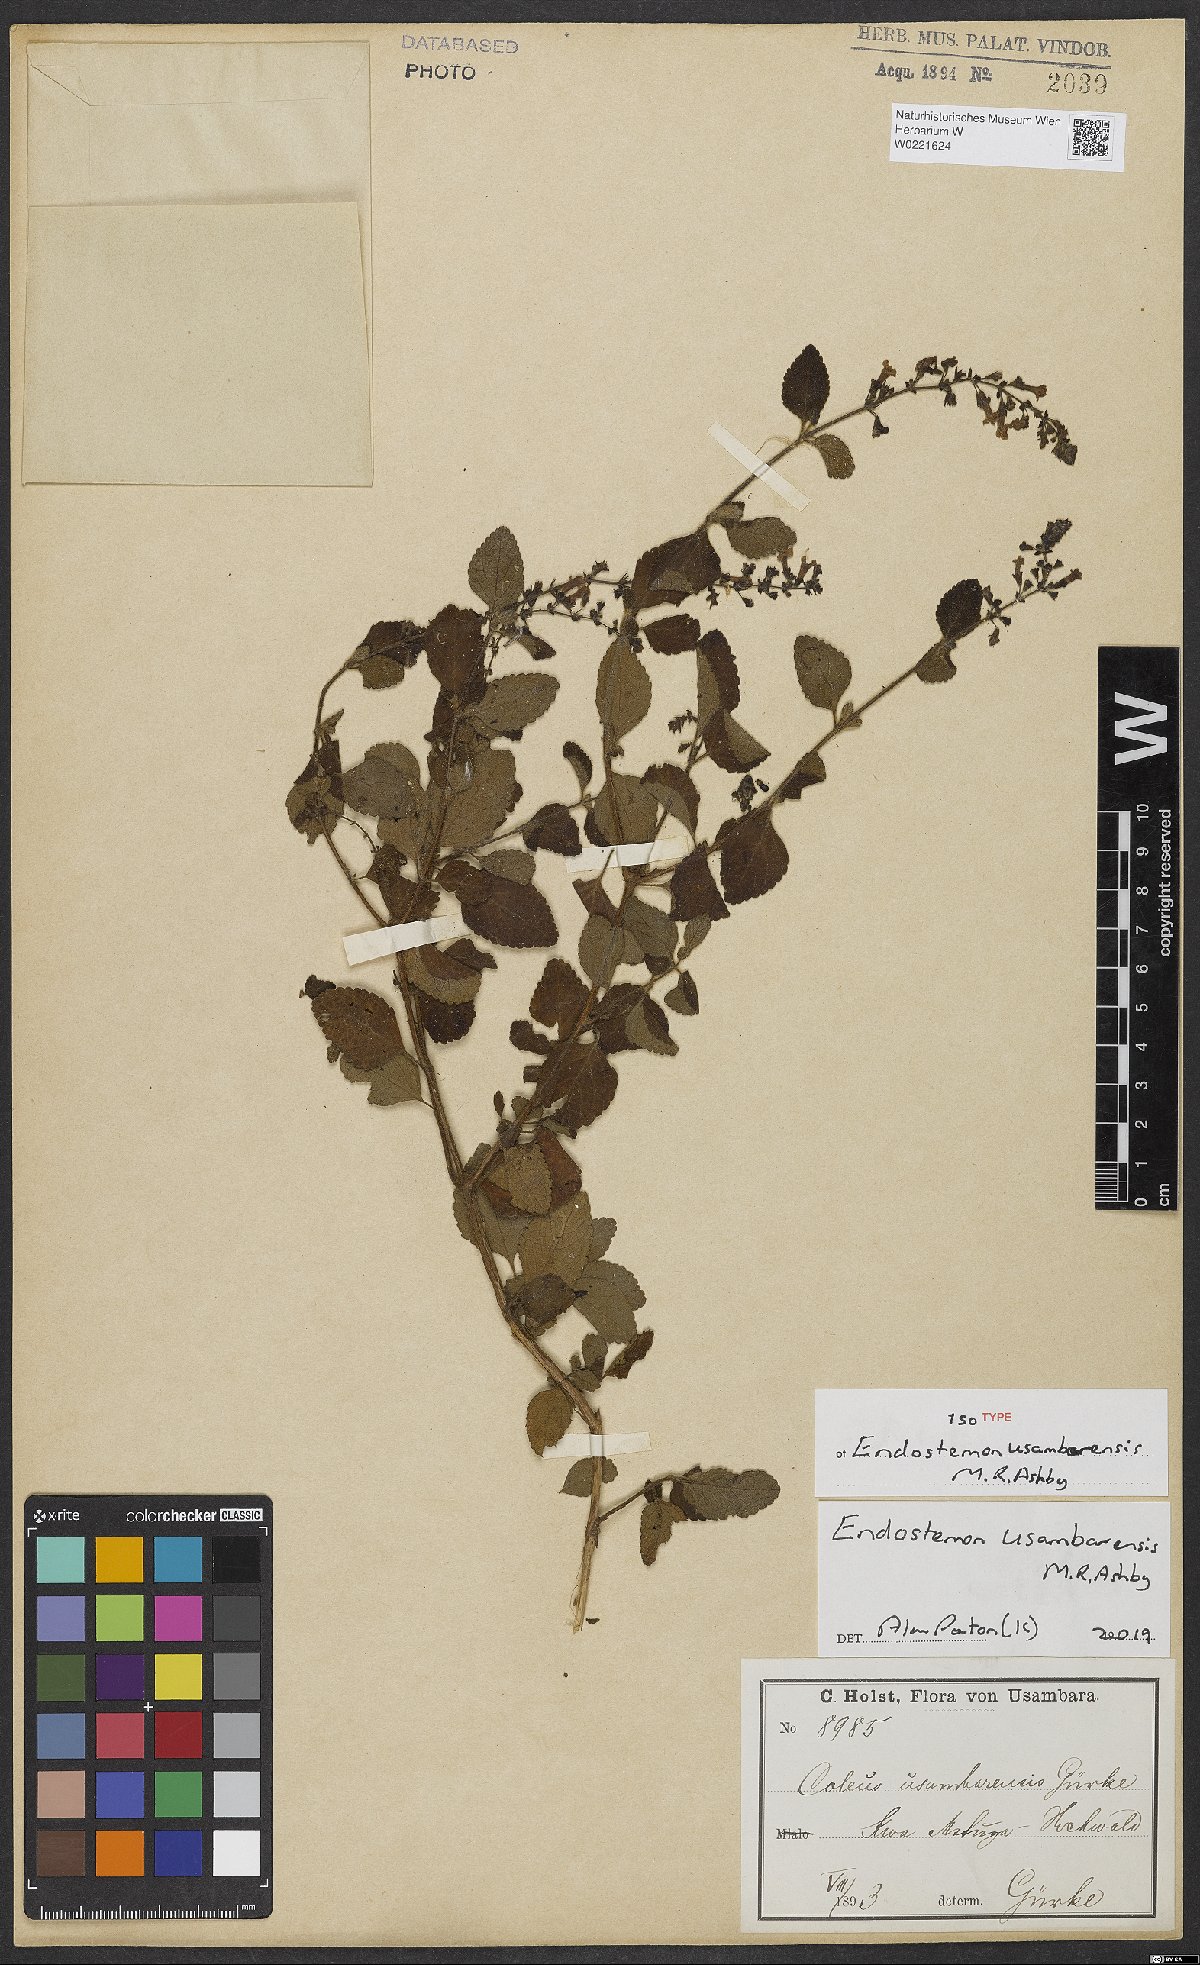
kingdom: Plantae
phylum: Tracheophyta
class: Magnoliopsida
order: Lamiales
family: Lamiaceae
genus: Endostemon
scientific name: Endostemon usambarensis
